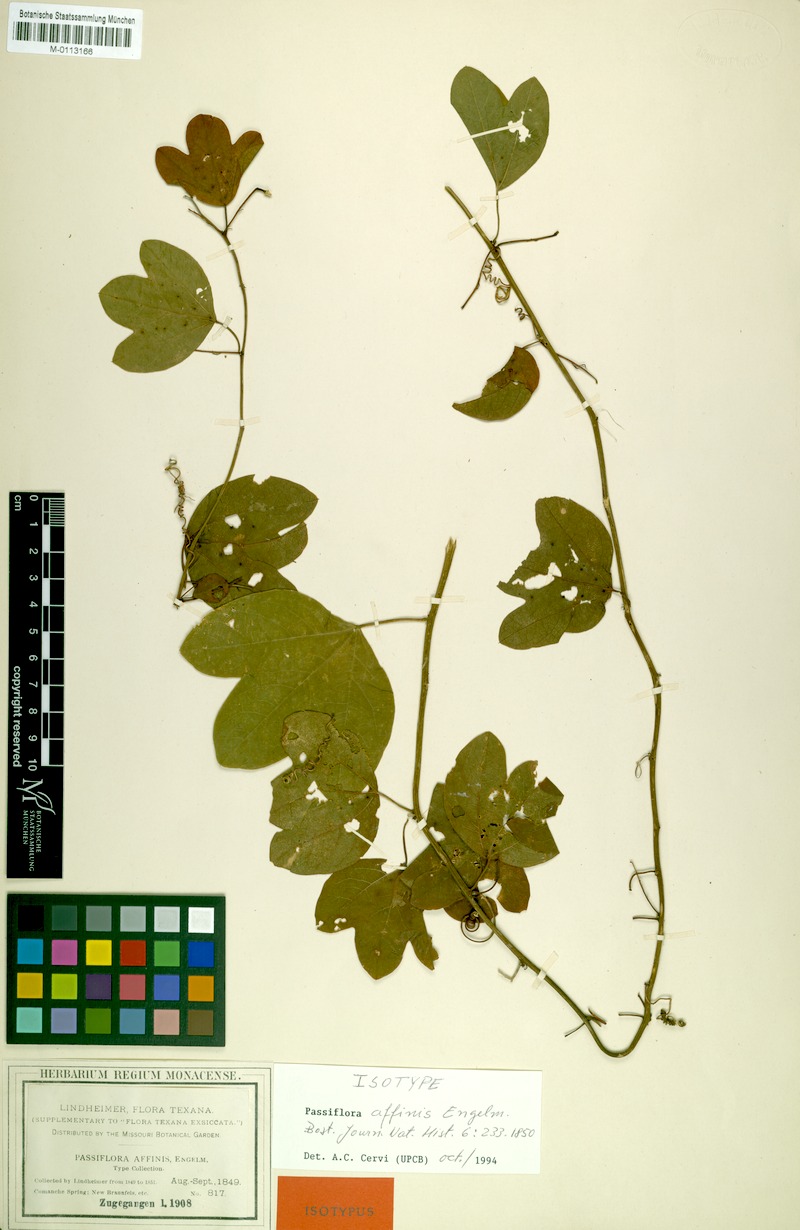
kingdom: Plantae
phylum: Tracheophyta
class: Magnoliopsida
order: Malpighiales
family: Passifloraceae
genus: Passiflora
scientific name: Passiflora affinis
